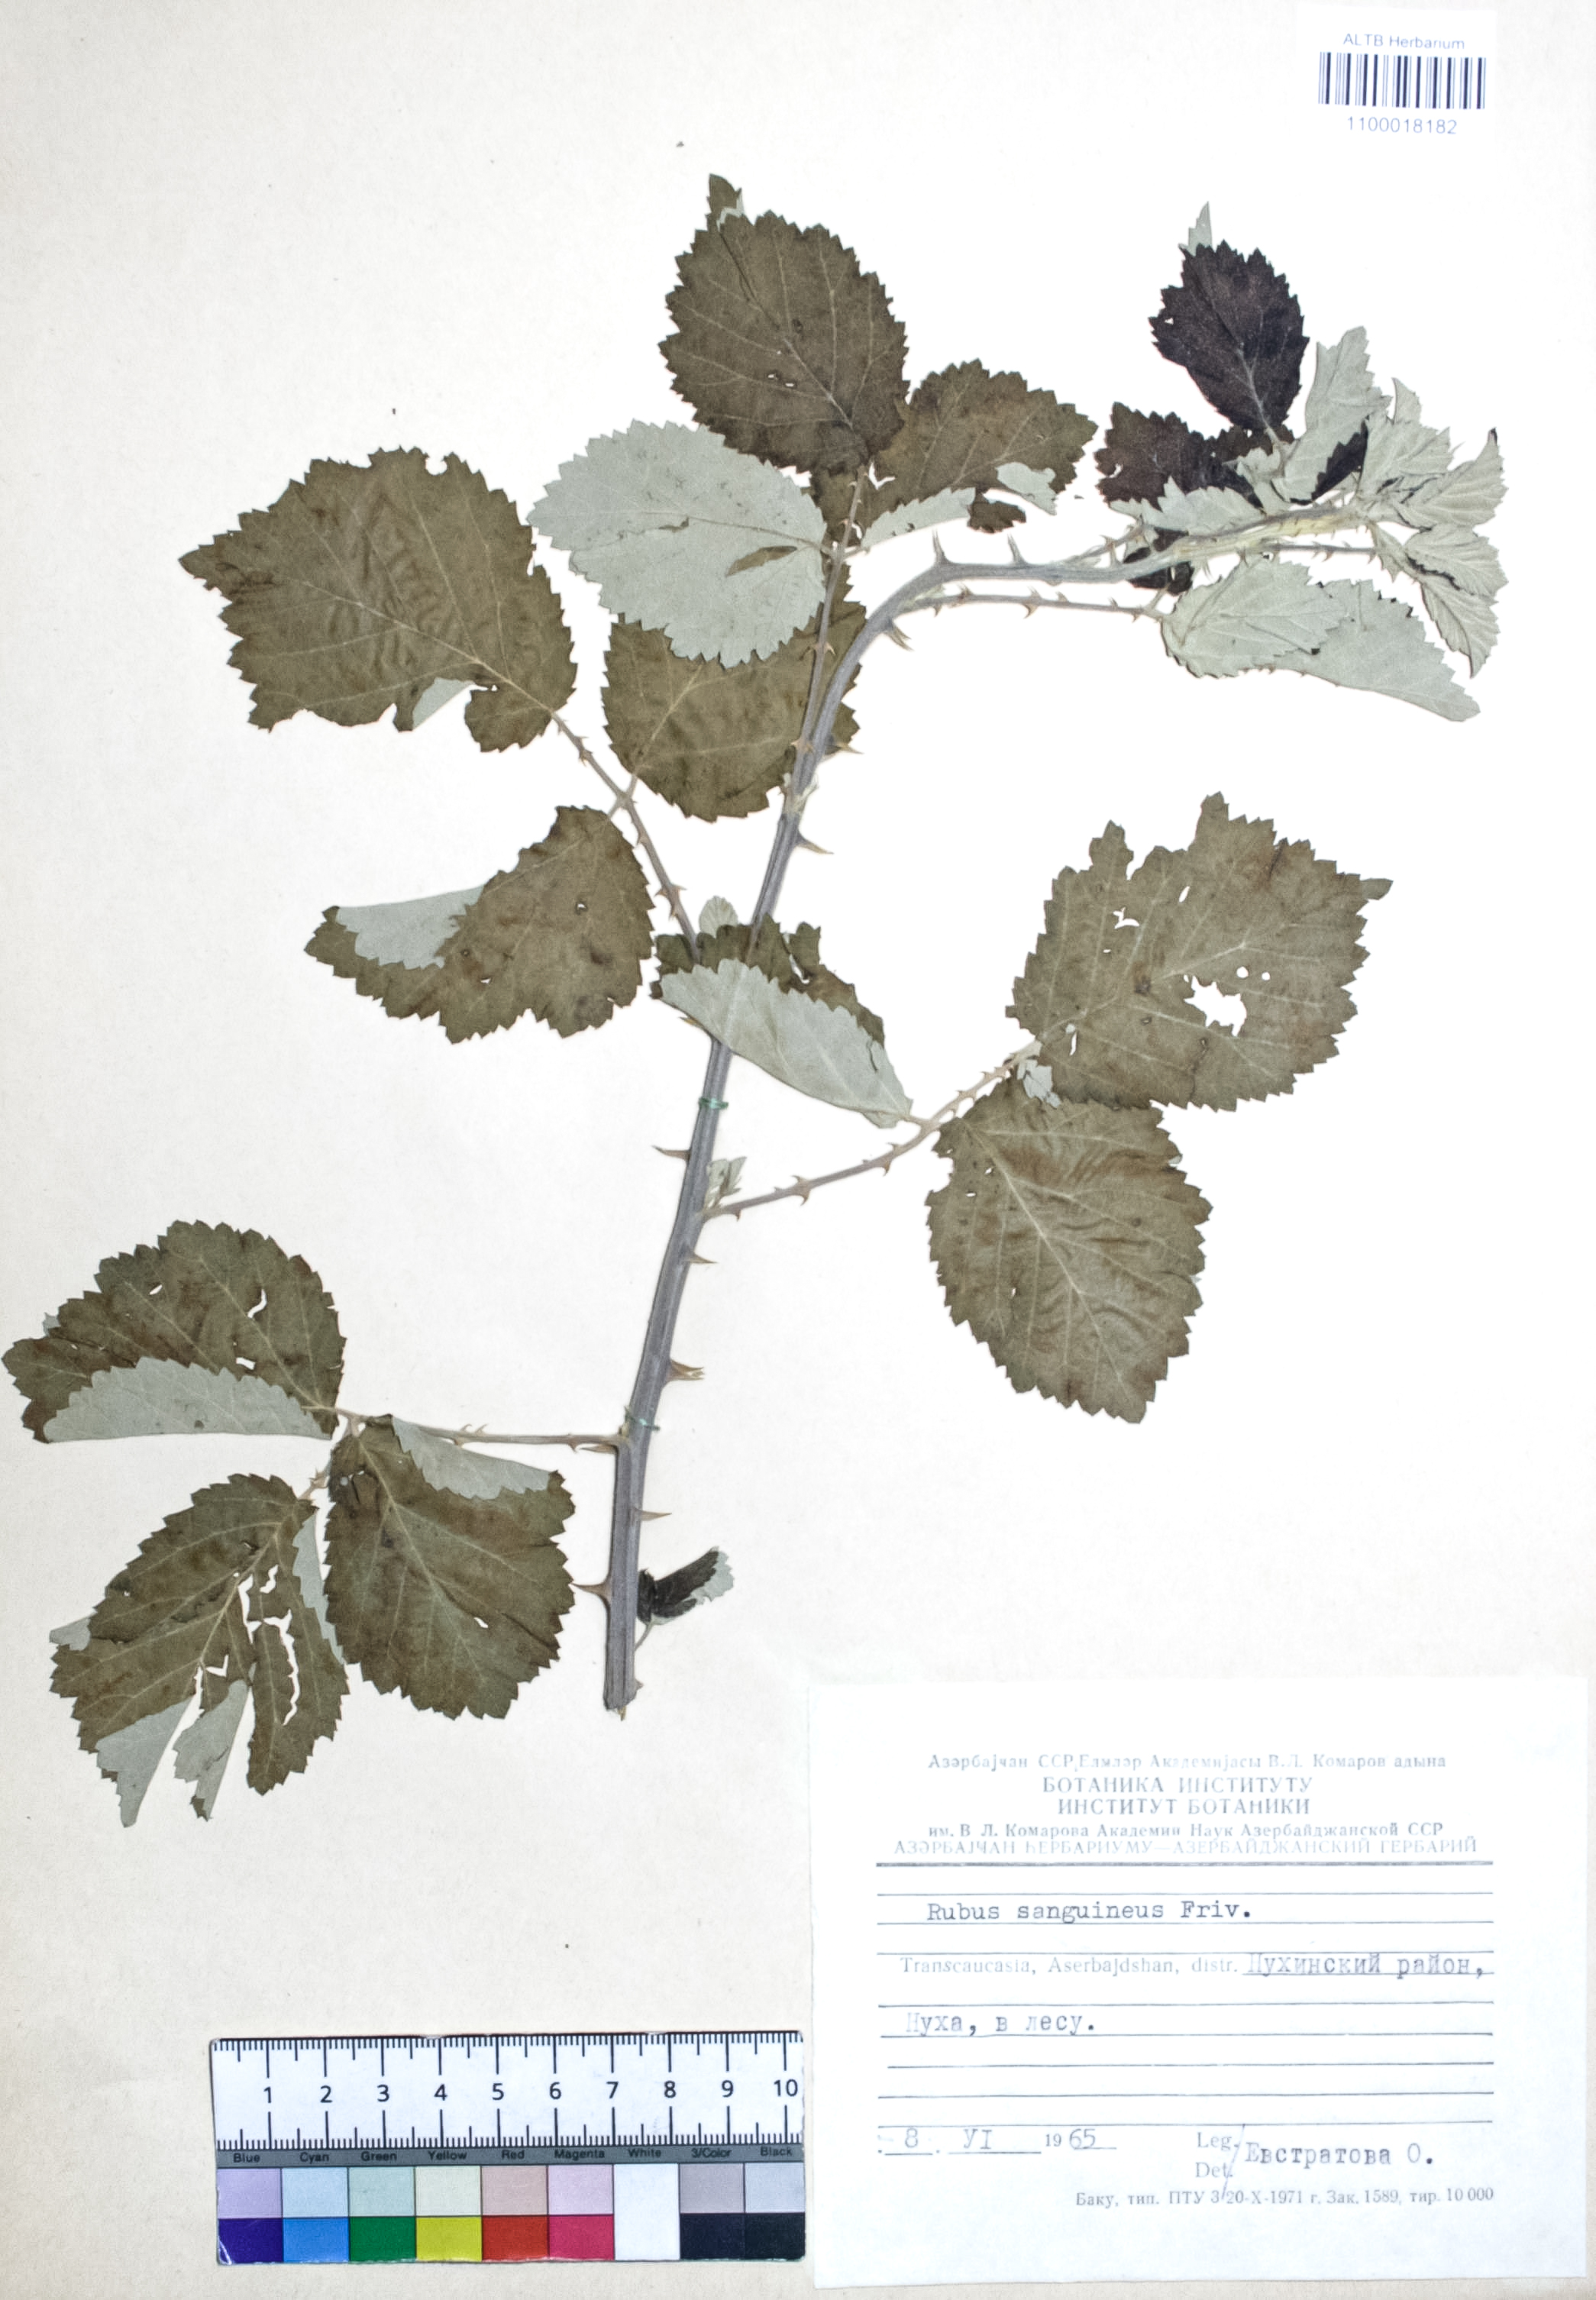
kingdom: Plantae
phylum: Tracheophyta
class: Magnoliopsida
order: Rosales
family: Rosaceae
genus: Rubus
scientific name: Rubus sanctus
